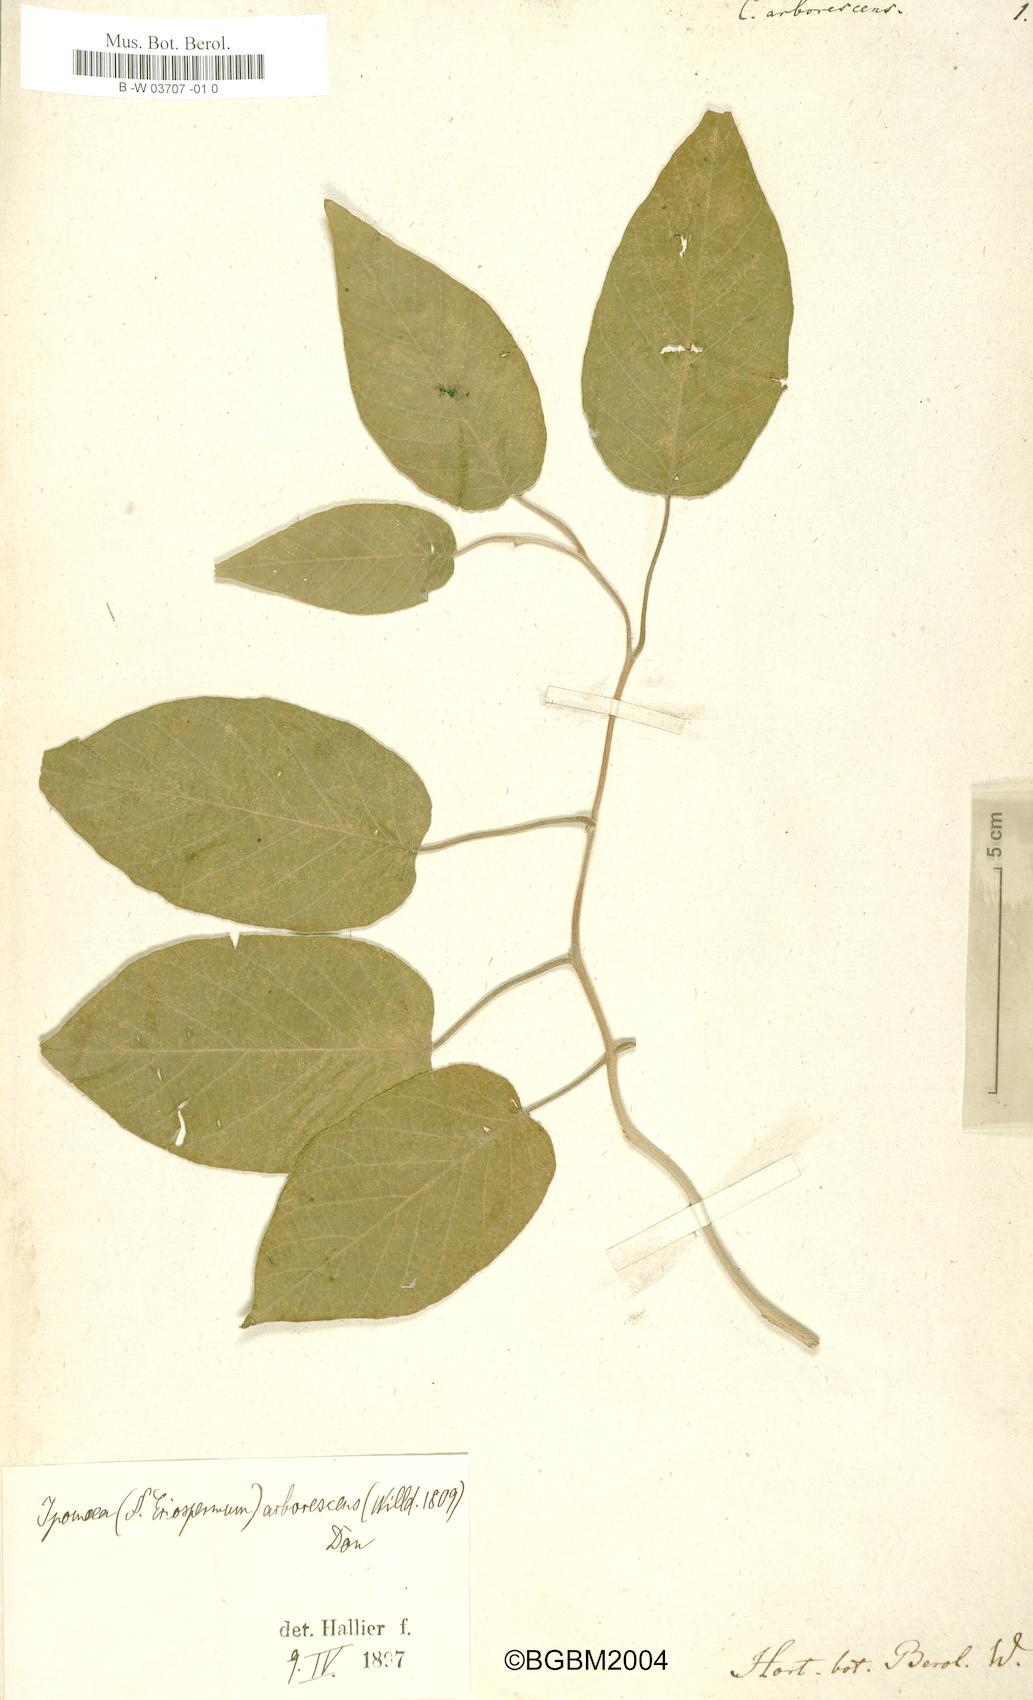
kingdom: Plantae
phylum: Tracheophyta
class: Magnoliopsida
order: Solanales
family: Convolvulaceae
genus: Ipomoea
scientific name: Ipomoea arborescens
